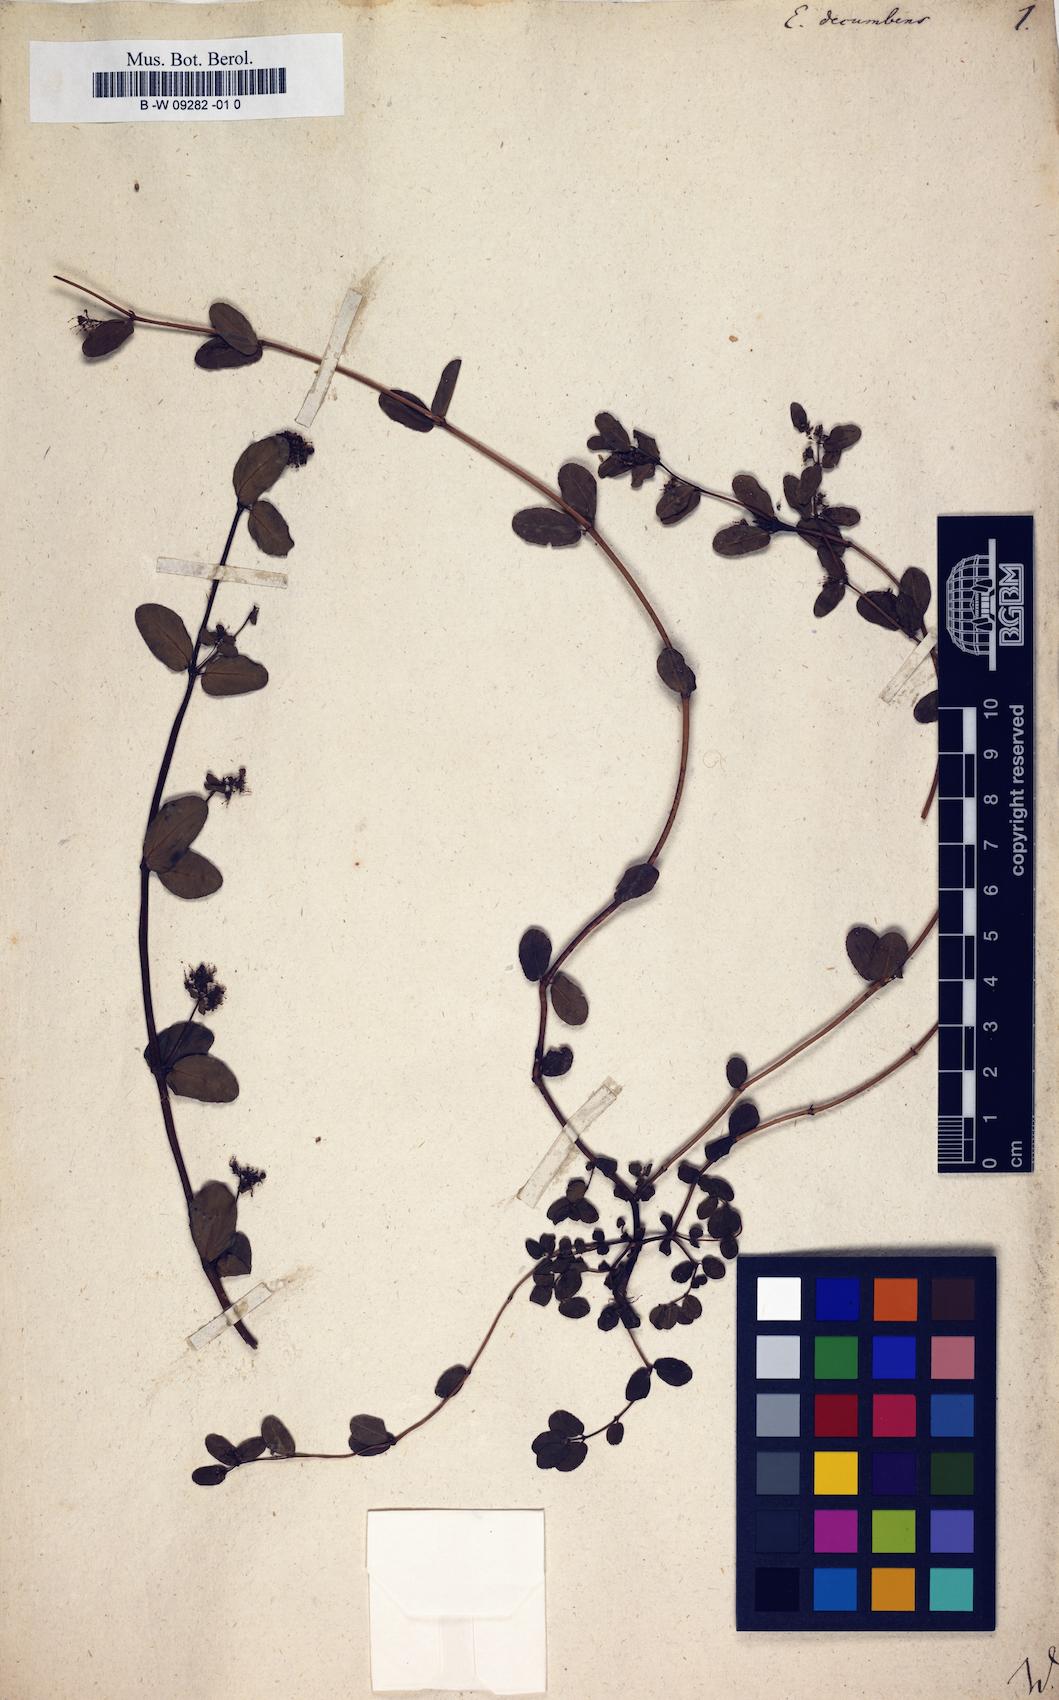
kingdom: Plantae
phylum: Tracheophyta
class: Magnoliopsida
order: Malpighiales
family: Euphorbiaceae
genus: Euphorbia
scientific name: Euphorbia indica
